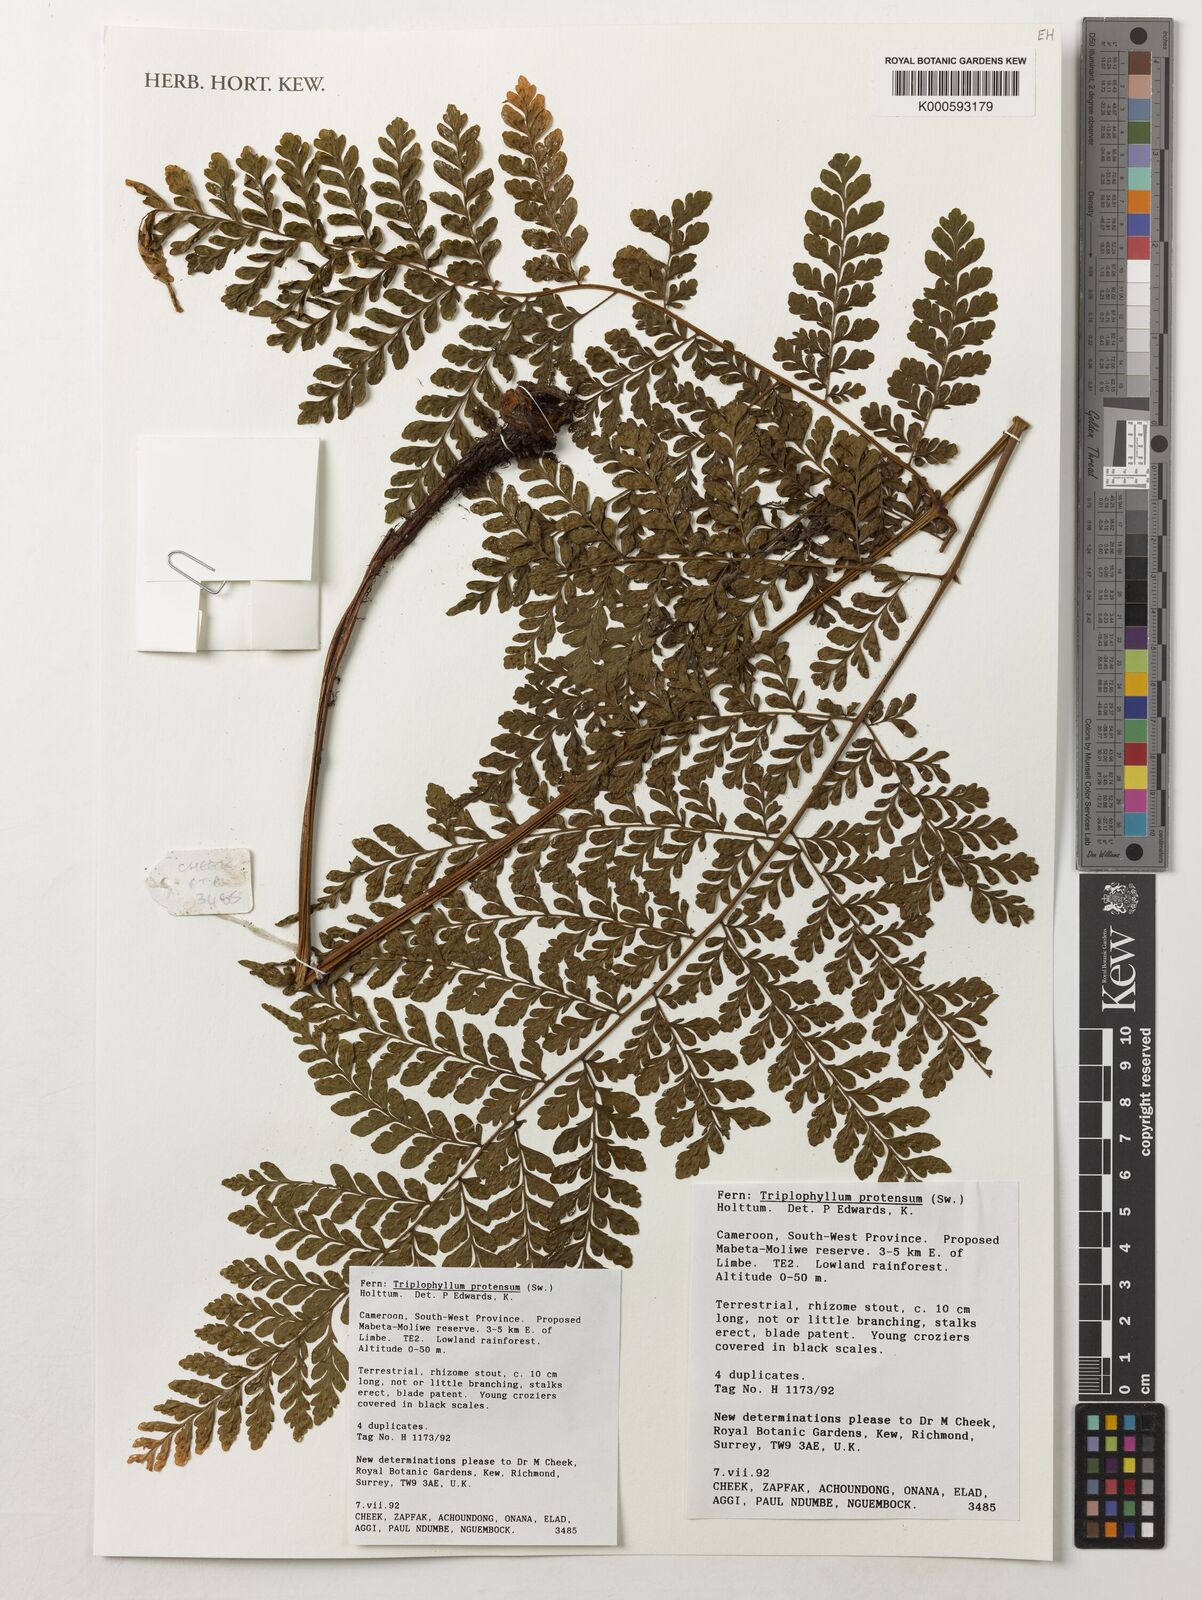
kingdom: Plantae
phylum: Tracheophyta
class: Polypodiopsida
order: Polypodiales
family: Tectariaceae
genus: Triplophyllum
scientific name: Triplophyllum protensum
